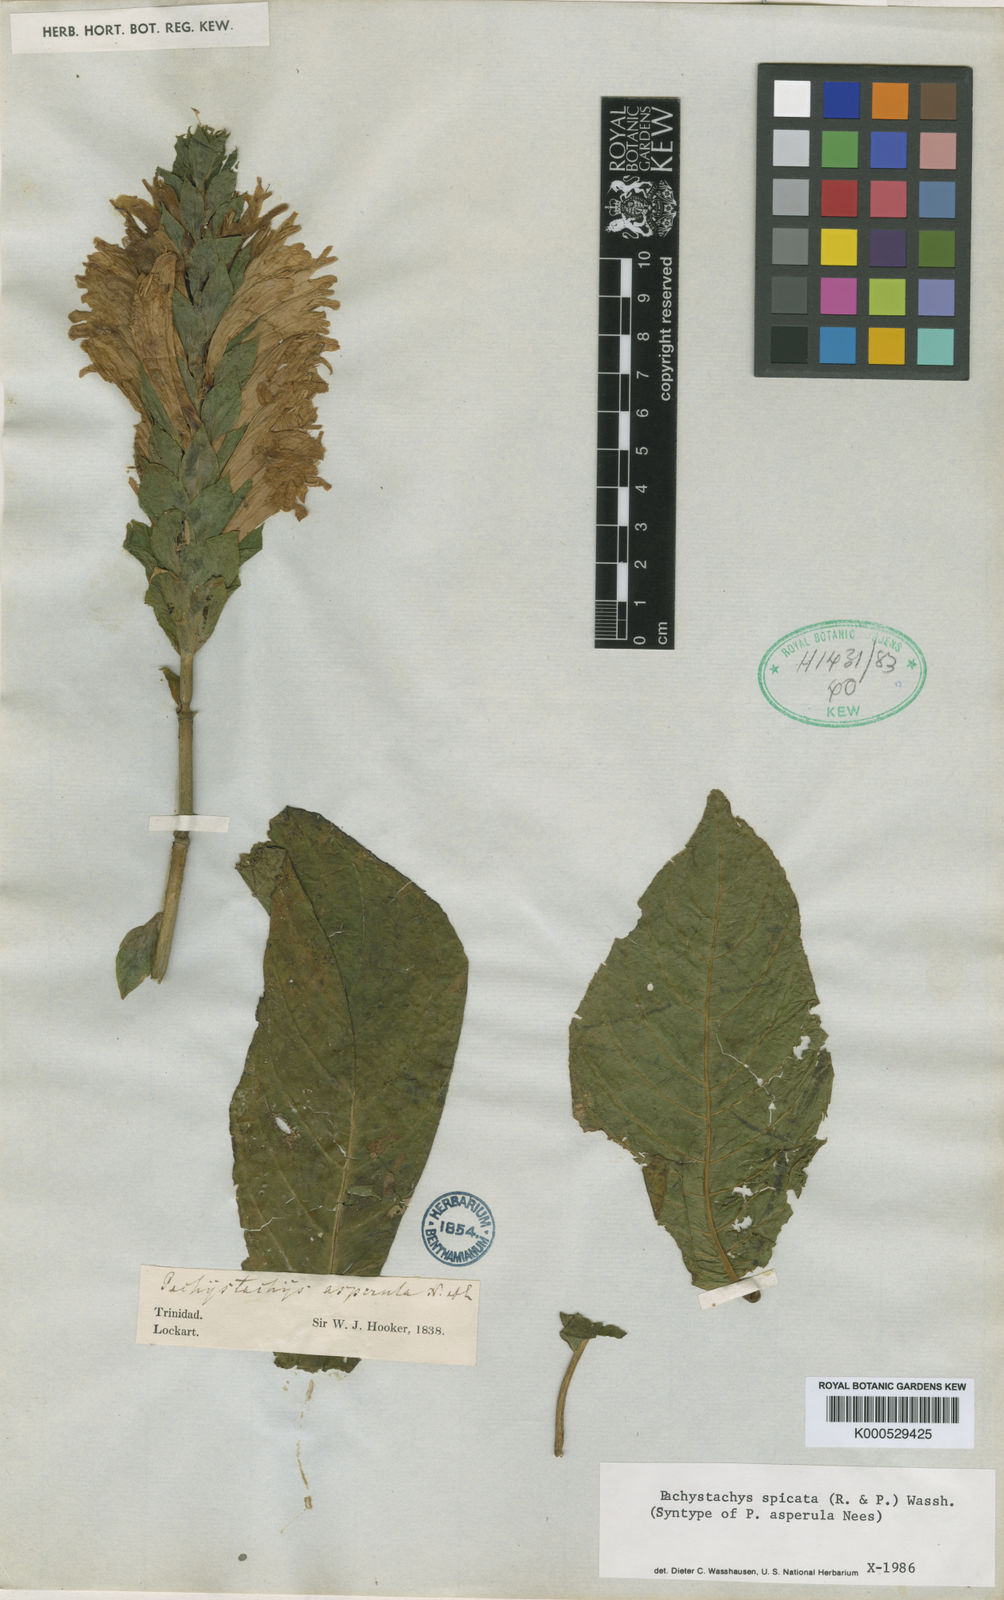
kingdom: Plantae
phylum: Tracheophyta
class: Magnoliopsida
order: Lamiales
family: Acanthaceae
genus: Pachystachys
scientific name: Pachystachys spicata
